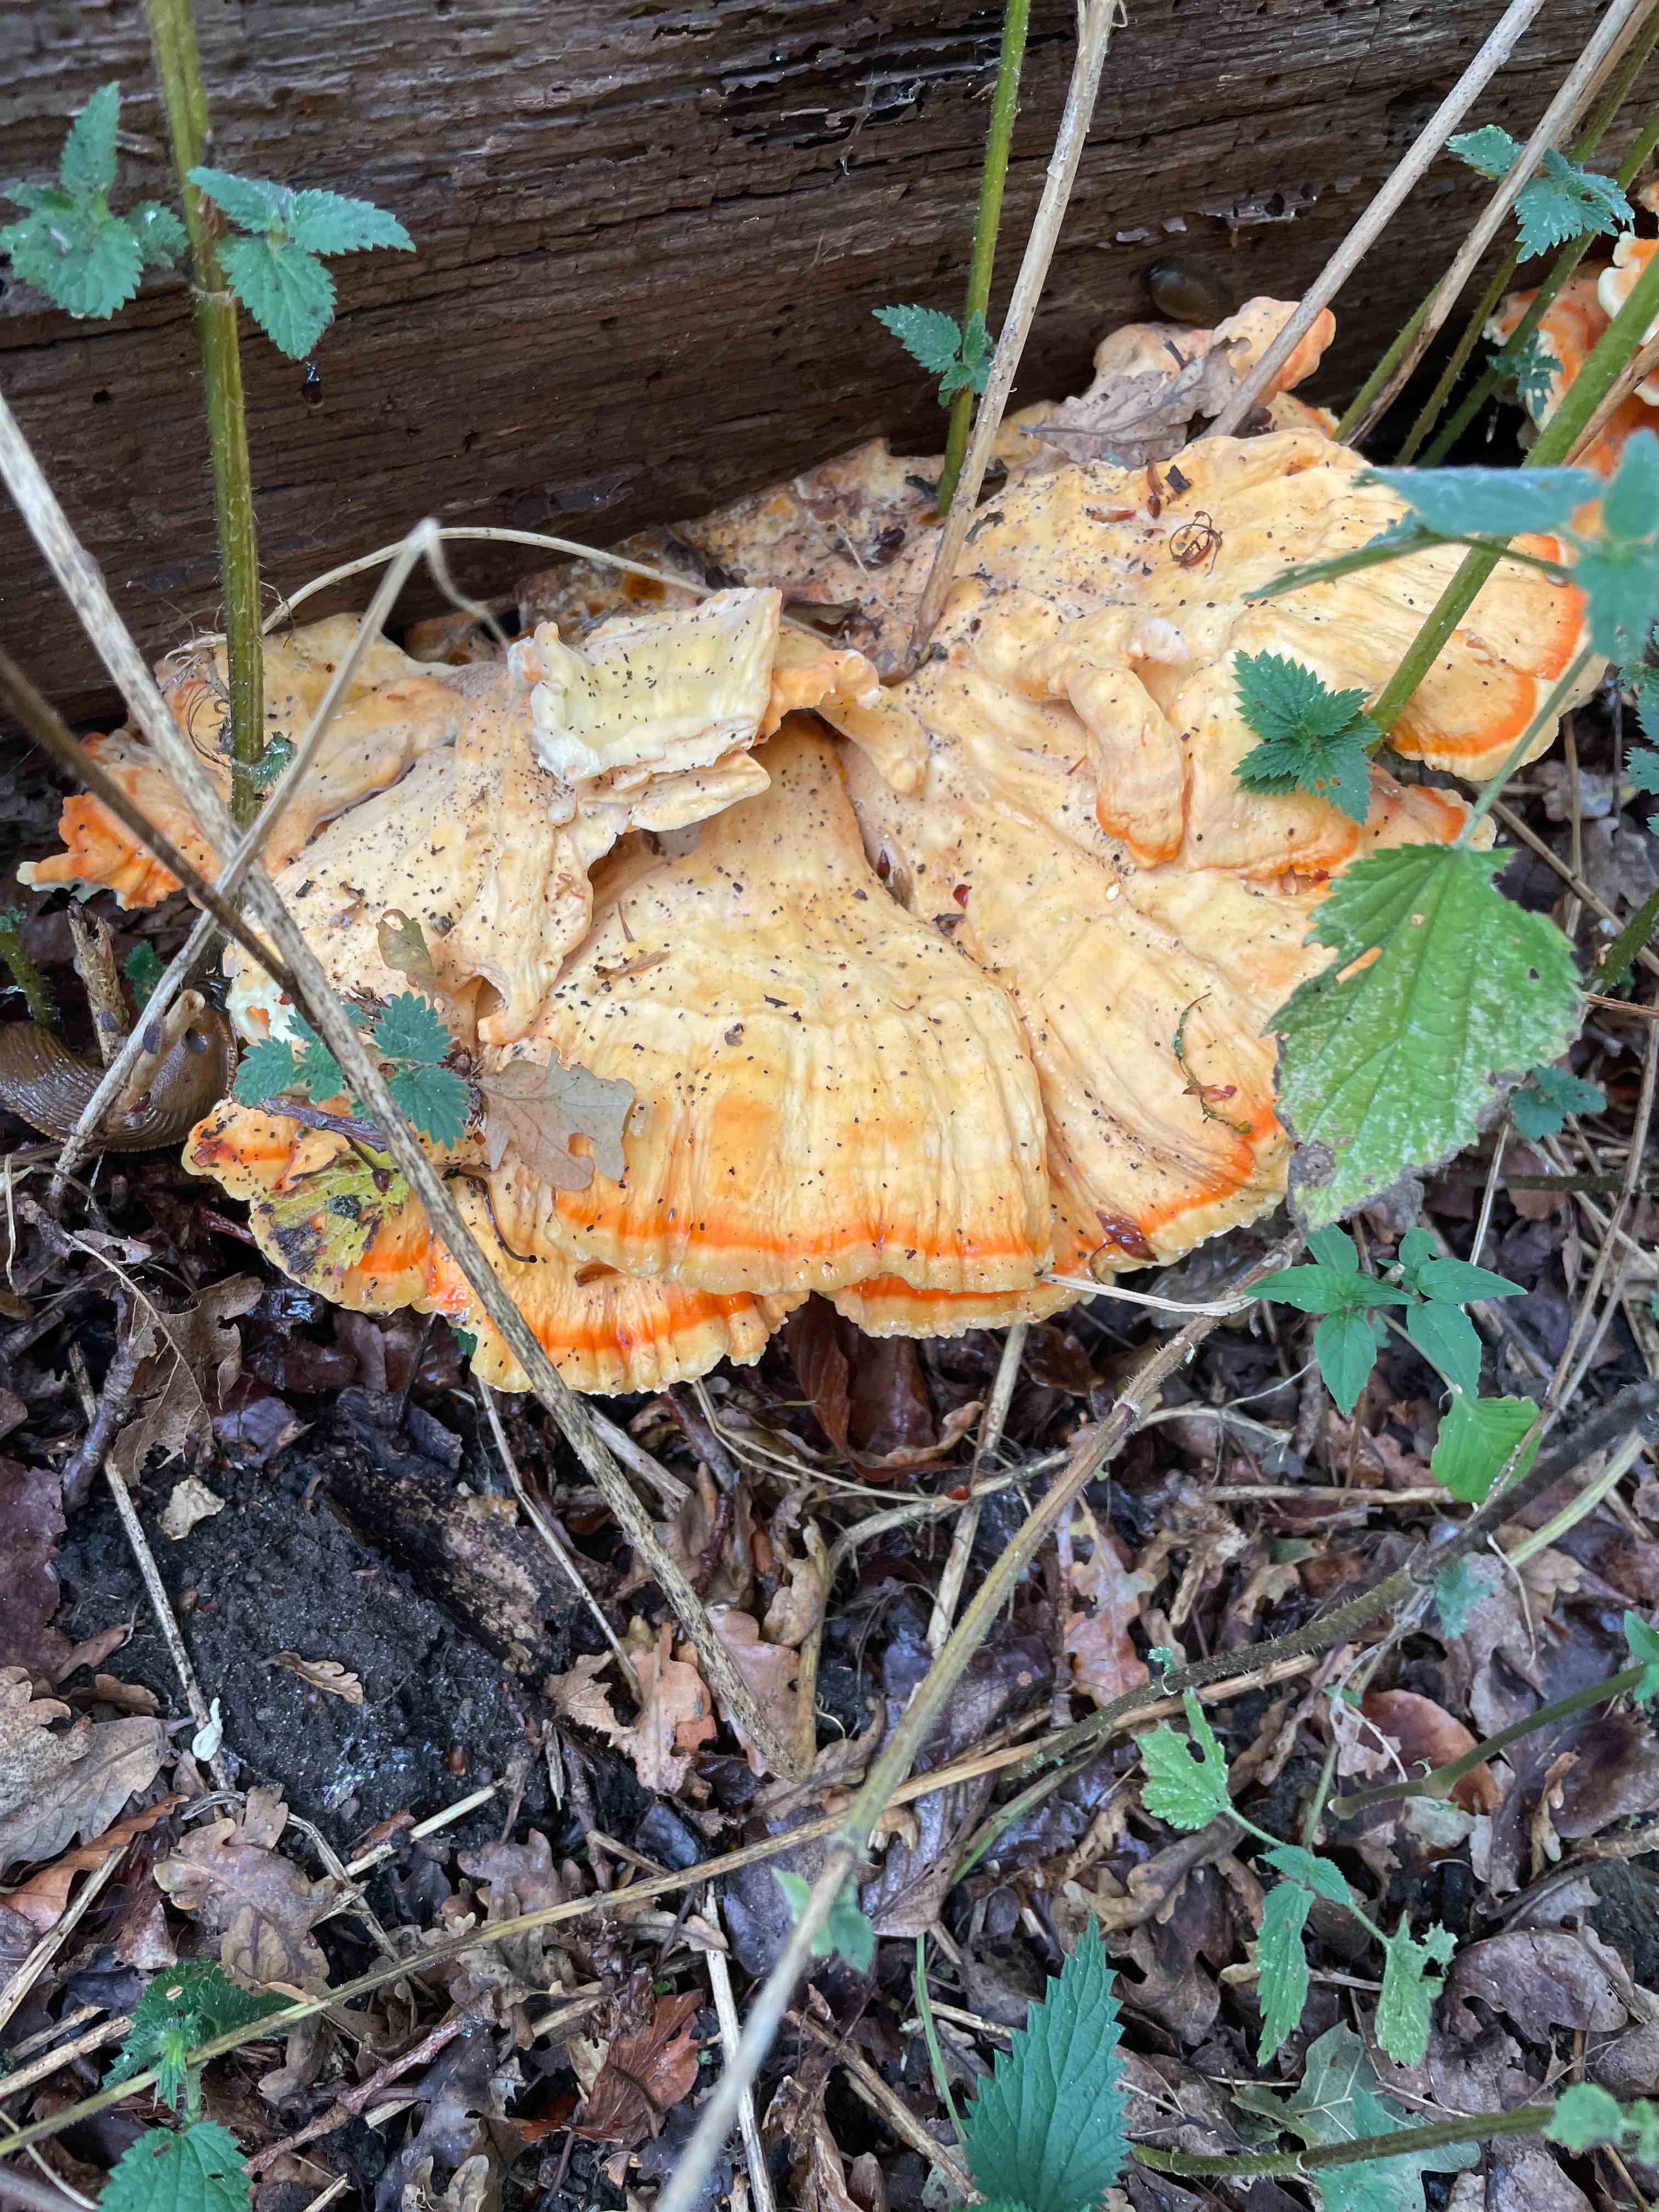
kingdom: Fungi
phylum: Basidiomycota
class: Agaricomycetes
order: Polyporales
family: Laetiporaceae
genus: Laetiporus
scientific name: Laetiporus sulphureus
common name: svovlporesvamp
